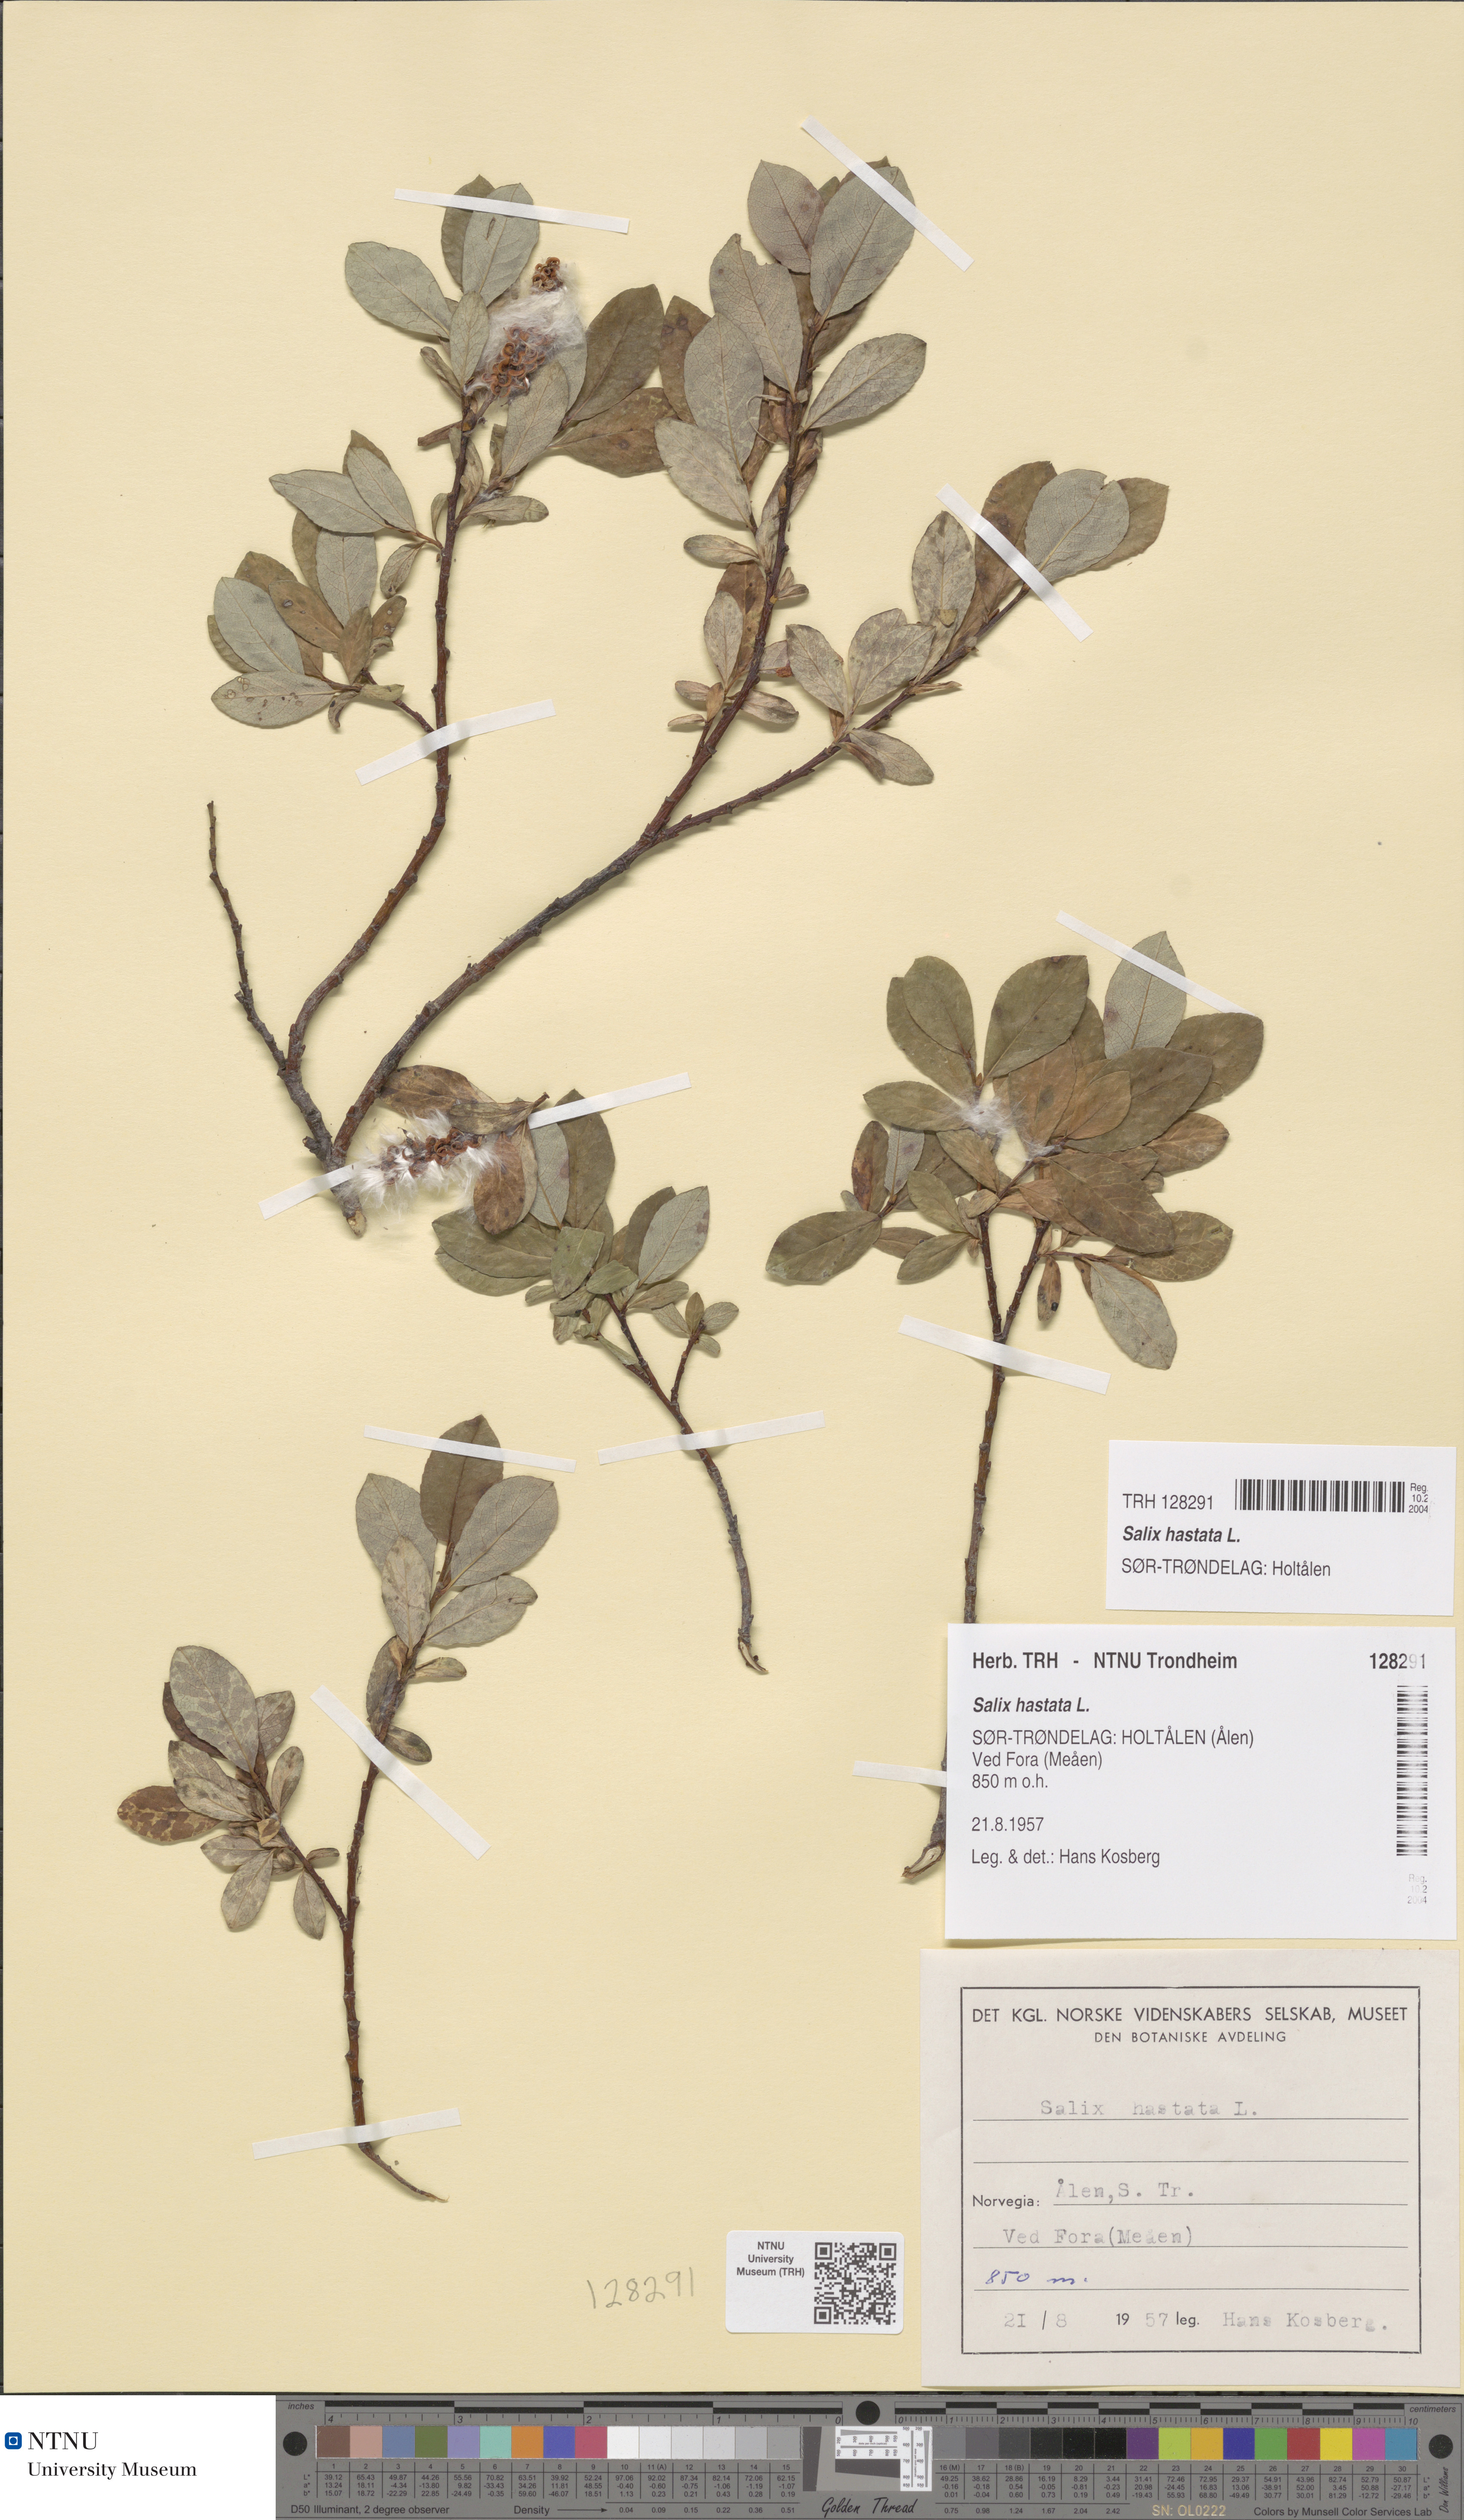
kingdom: Plantae
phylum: Tracheophyta
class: Magnoliopsida
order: Malpighiales
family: Salicaceae
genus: Salix
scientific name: Salix hastata
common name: Halberd willow
